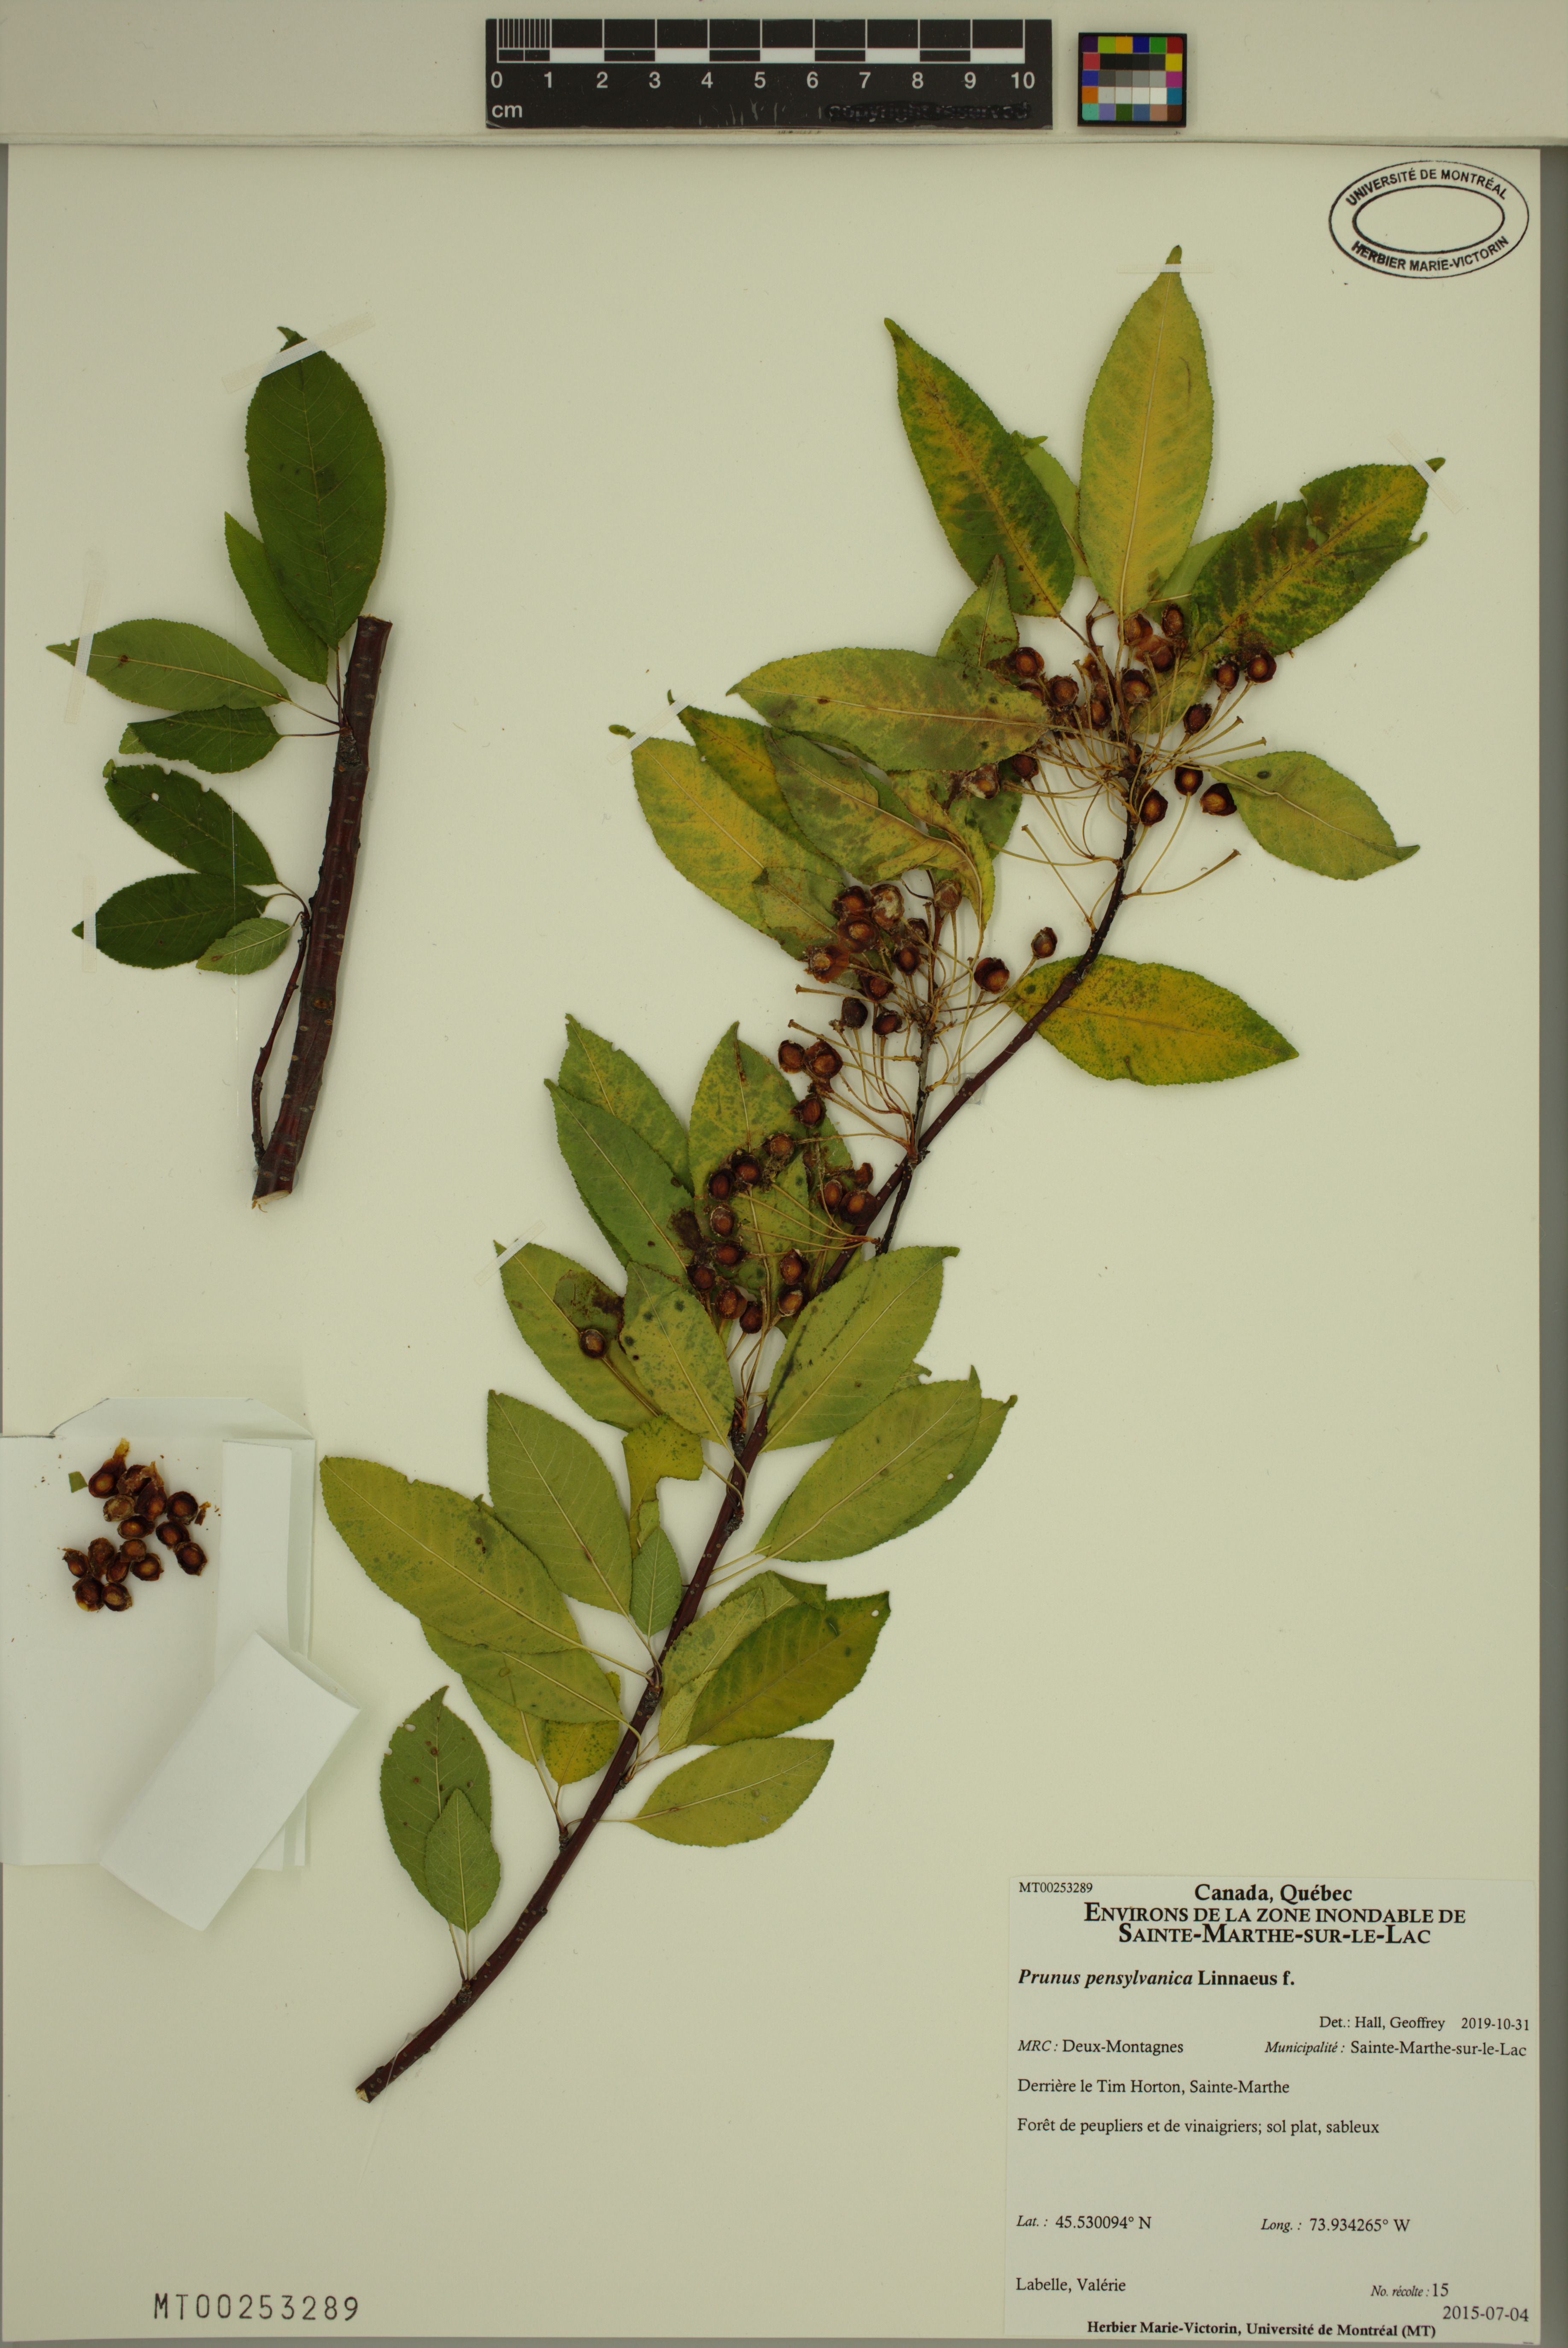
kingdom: Plantae
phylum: Tracheophyta
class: Magnoliopsida
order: Rosales
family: Rosaceae
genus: Prunus
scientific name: Prunus pensylvanica
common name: Pin cherry
